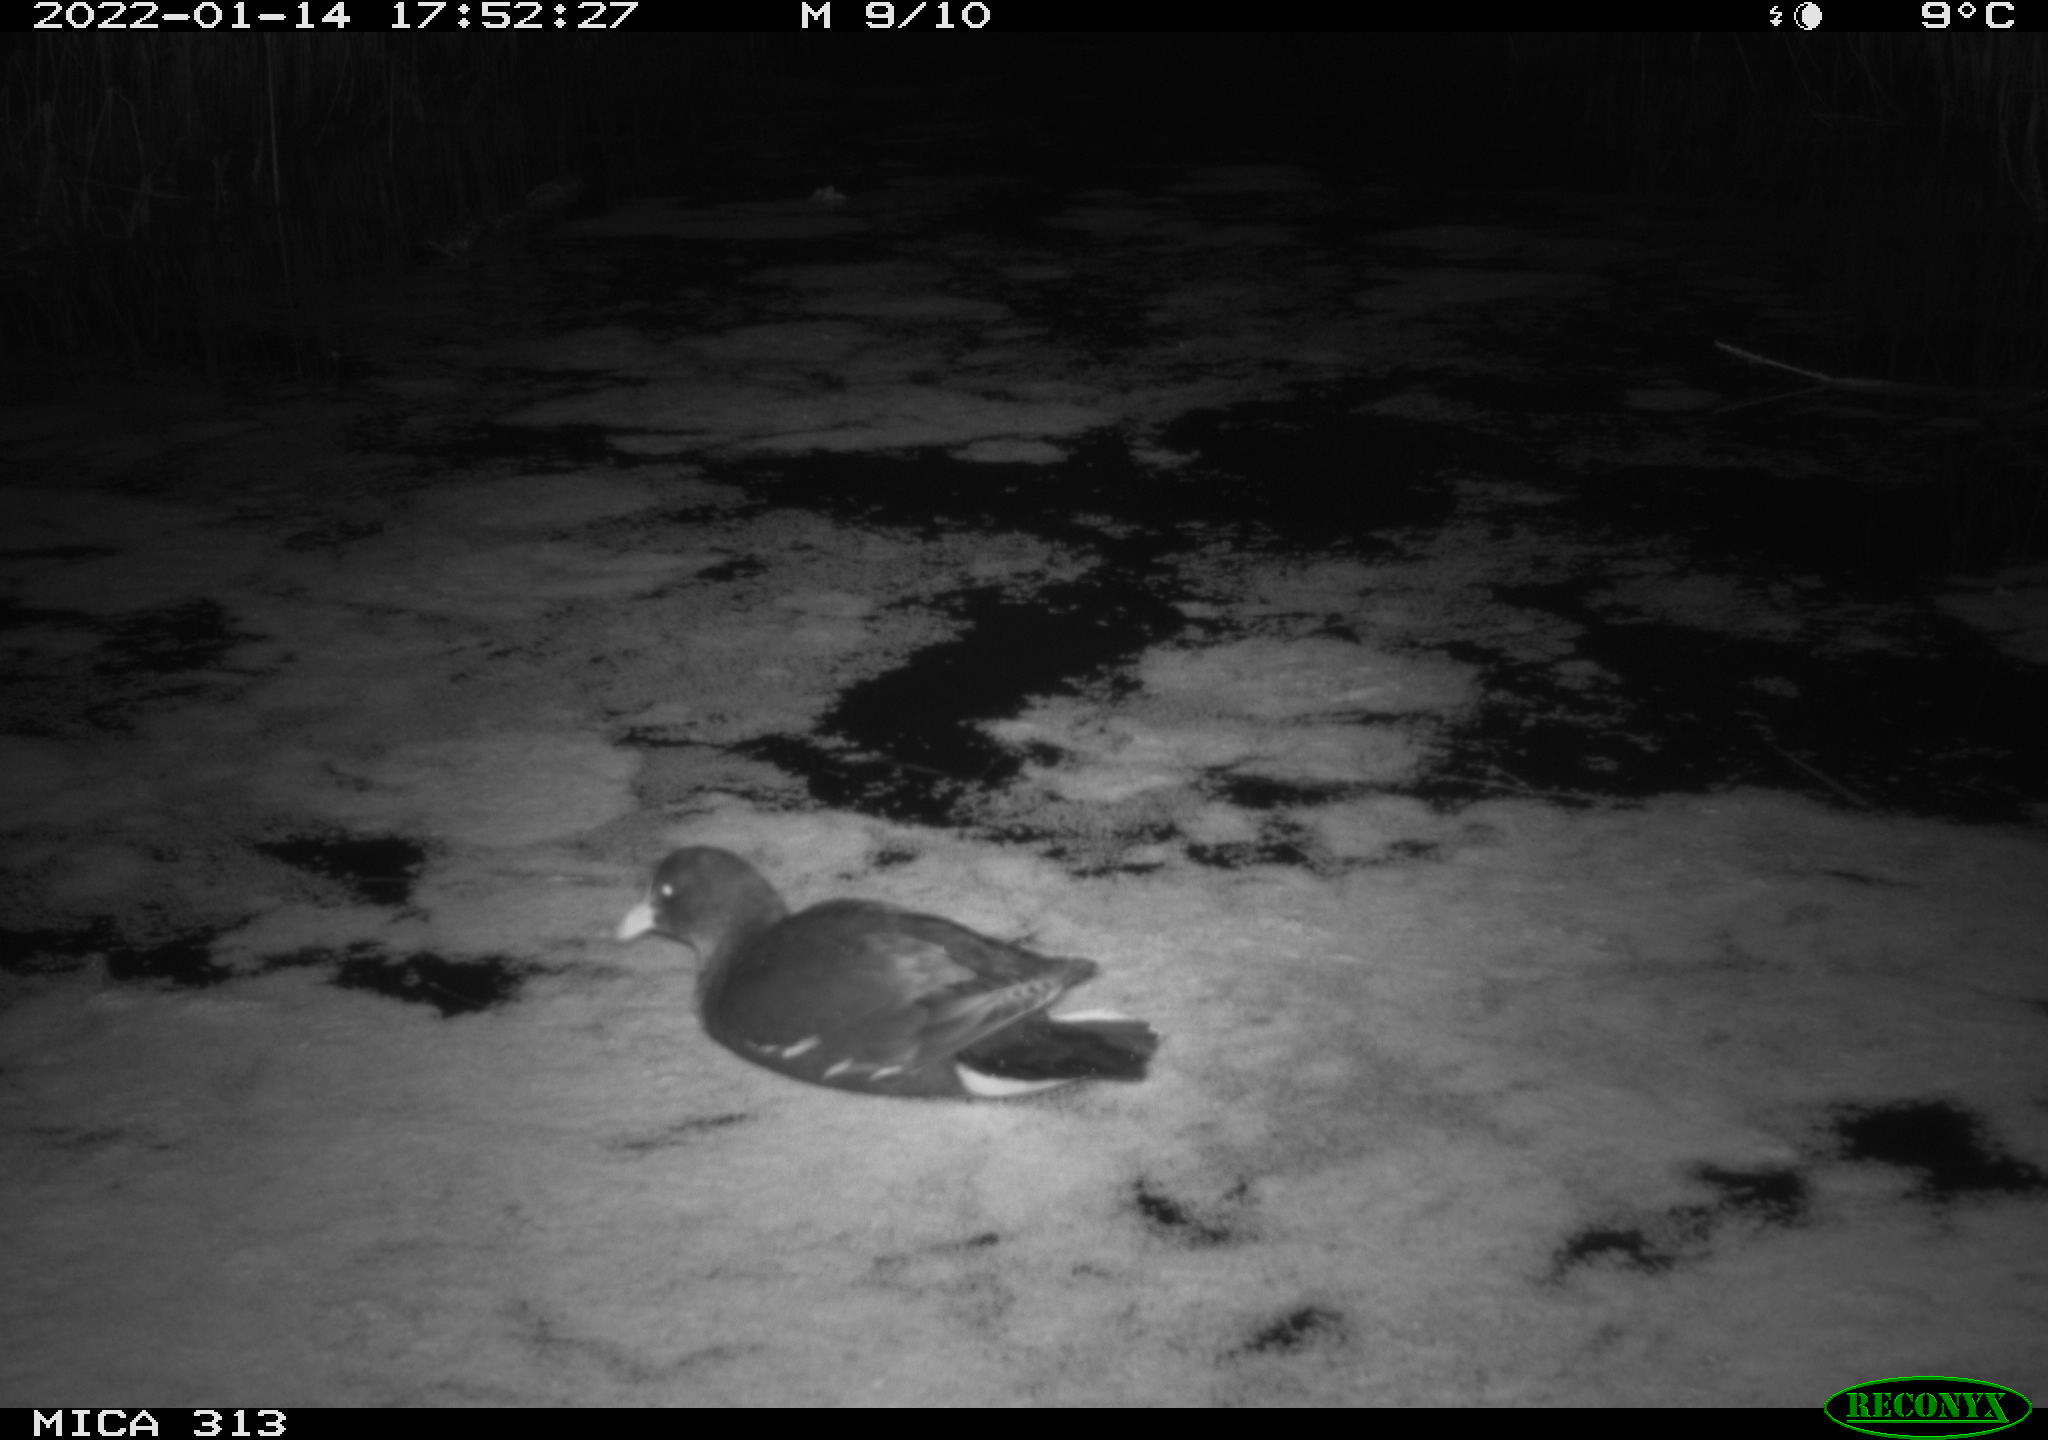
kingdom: Animalia
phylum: Chordata
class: Aves
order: Gruiformes
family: Rallidae
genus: Gallinula
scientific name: Gallinula chloropus
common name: Common moorhen
